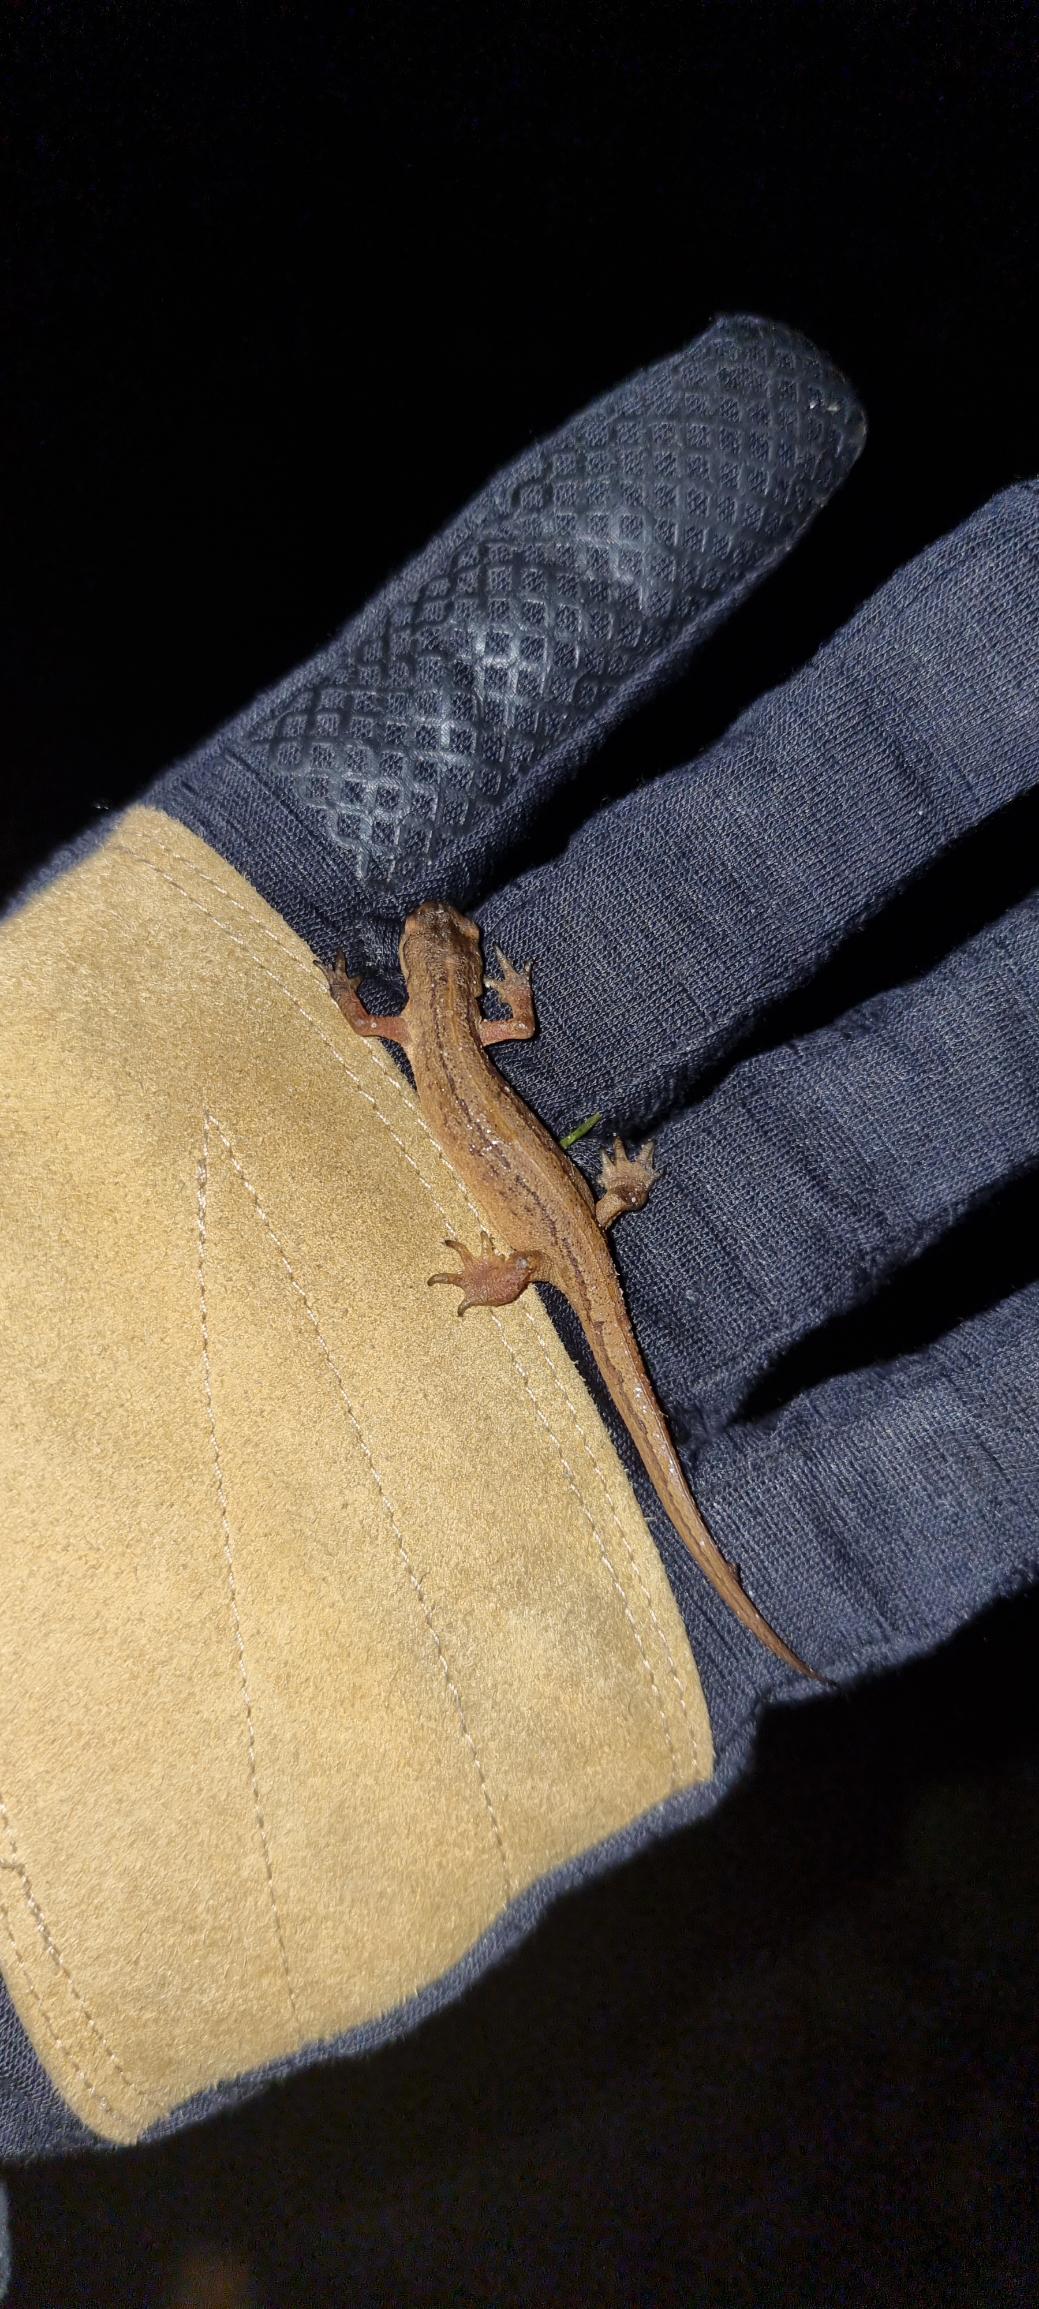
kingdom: Animalia
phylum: Chordata
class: Amphibia
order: Caudata
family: Salamandridae
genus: Lissotriton
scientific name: Lissotriton vulgaris
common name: Lille vandsalamander
